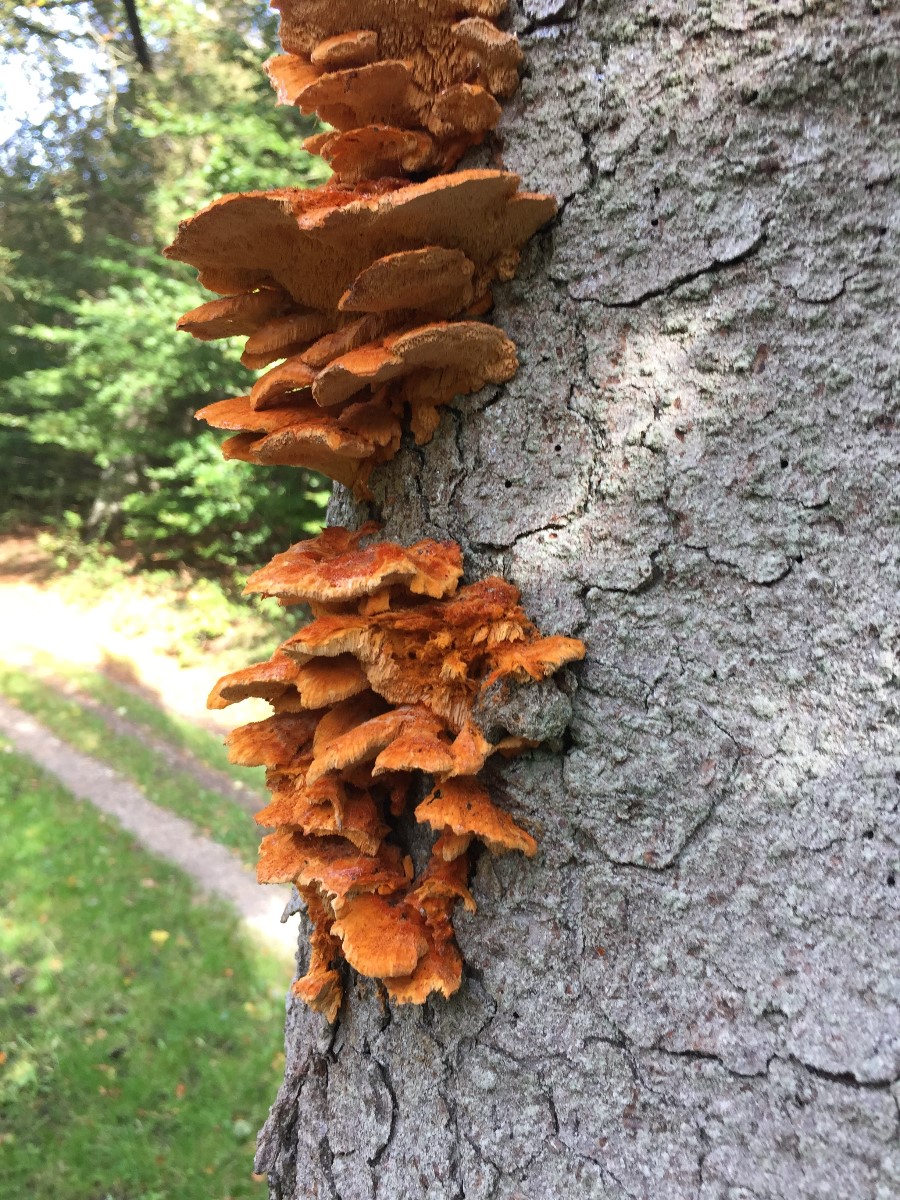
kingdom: Fungi
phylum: Basidiomycota
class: Agaricomycetes
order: Polyporales
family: Pycnoporellaceae
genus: Pycnoporellus
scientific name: Pycnoporellus fulgens
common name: flammeporesvamp
